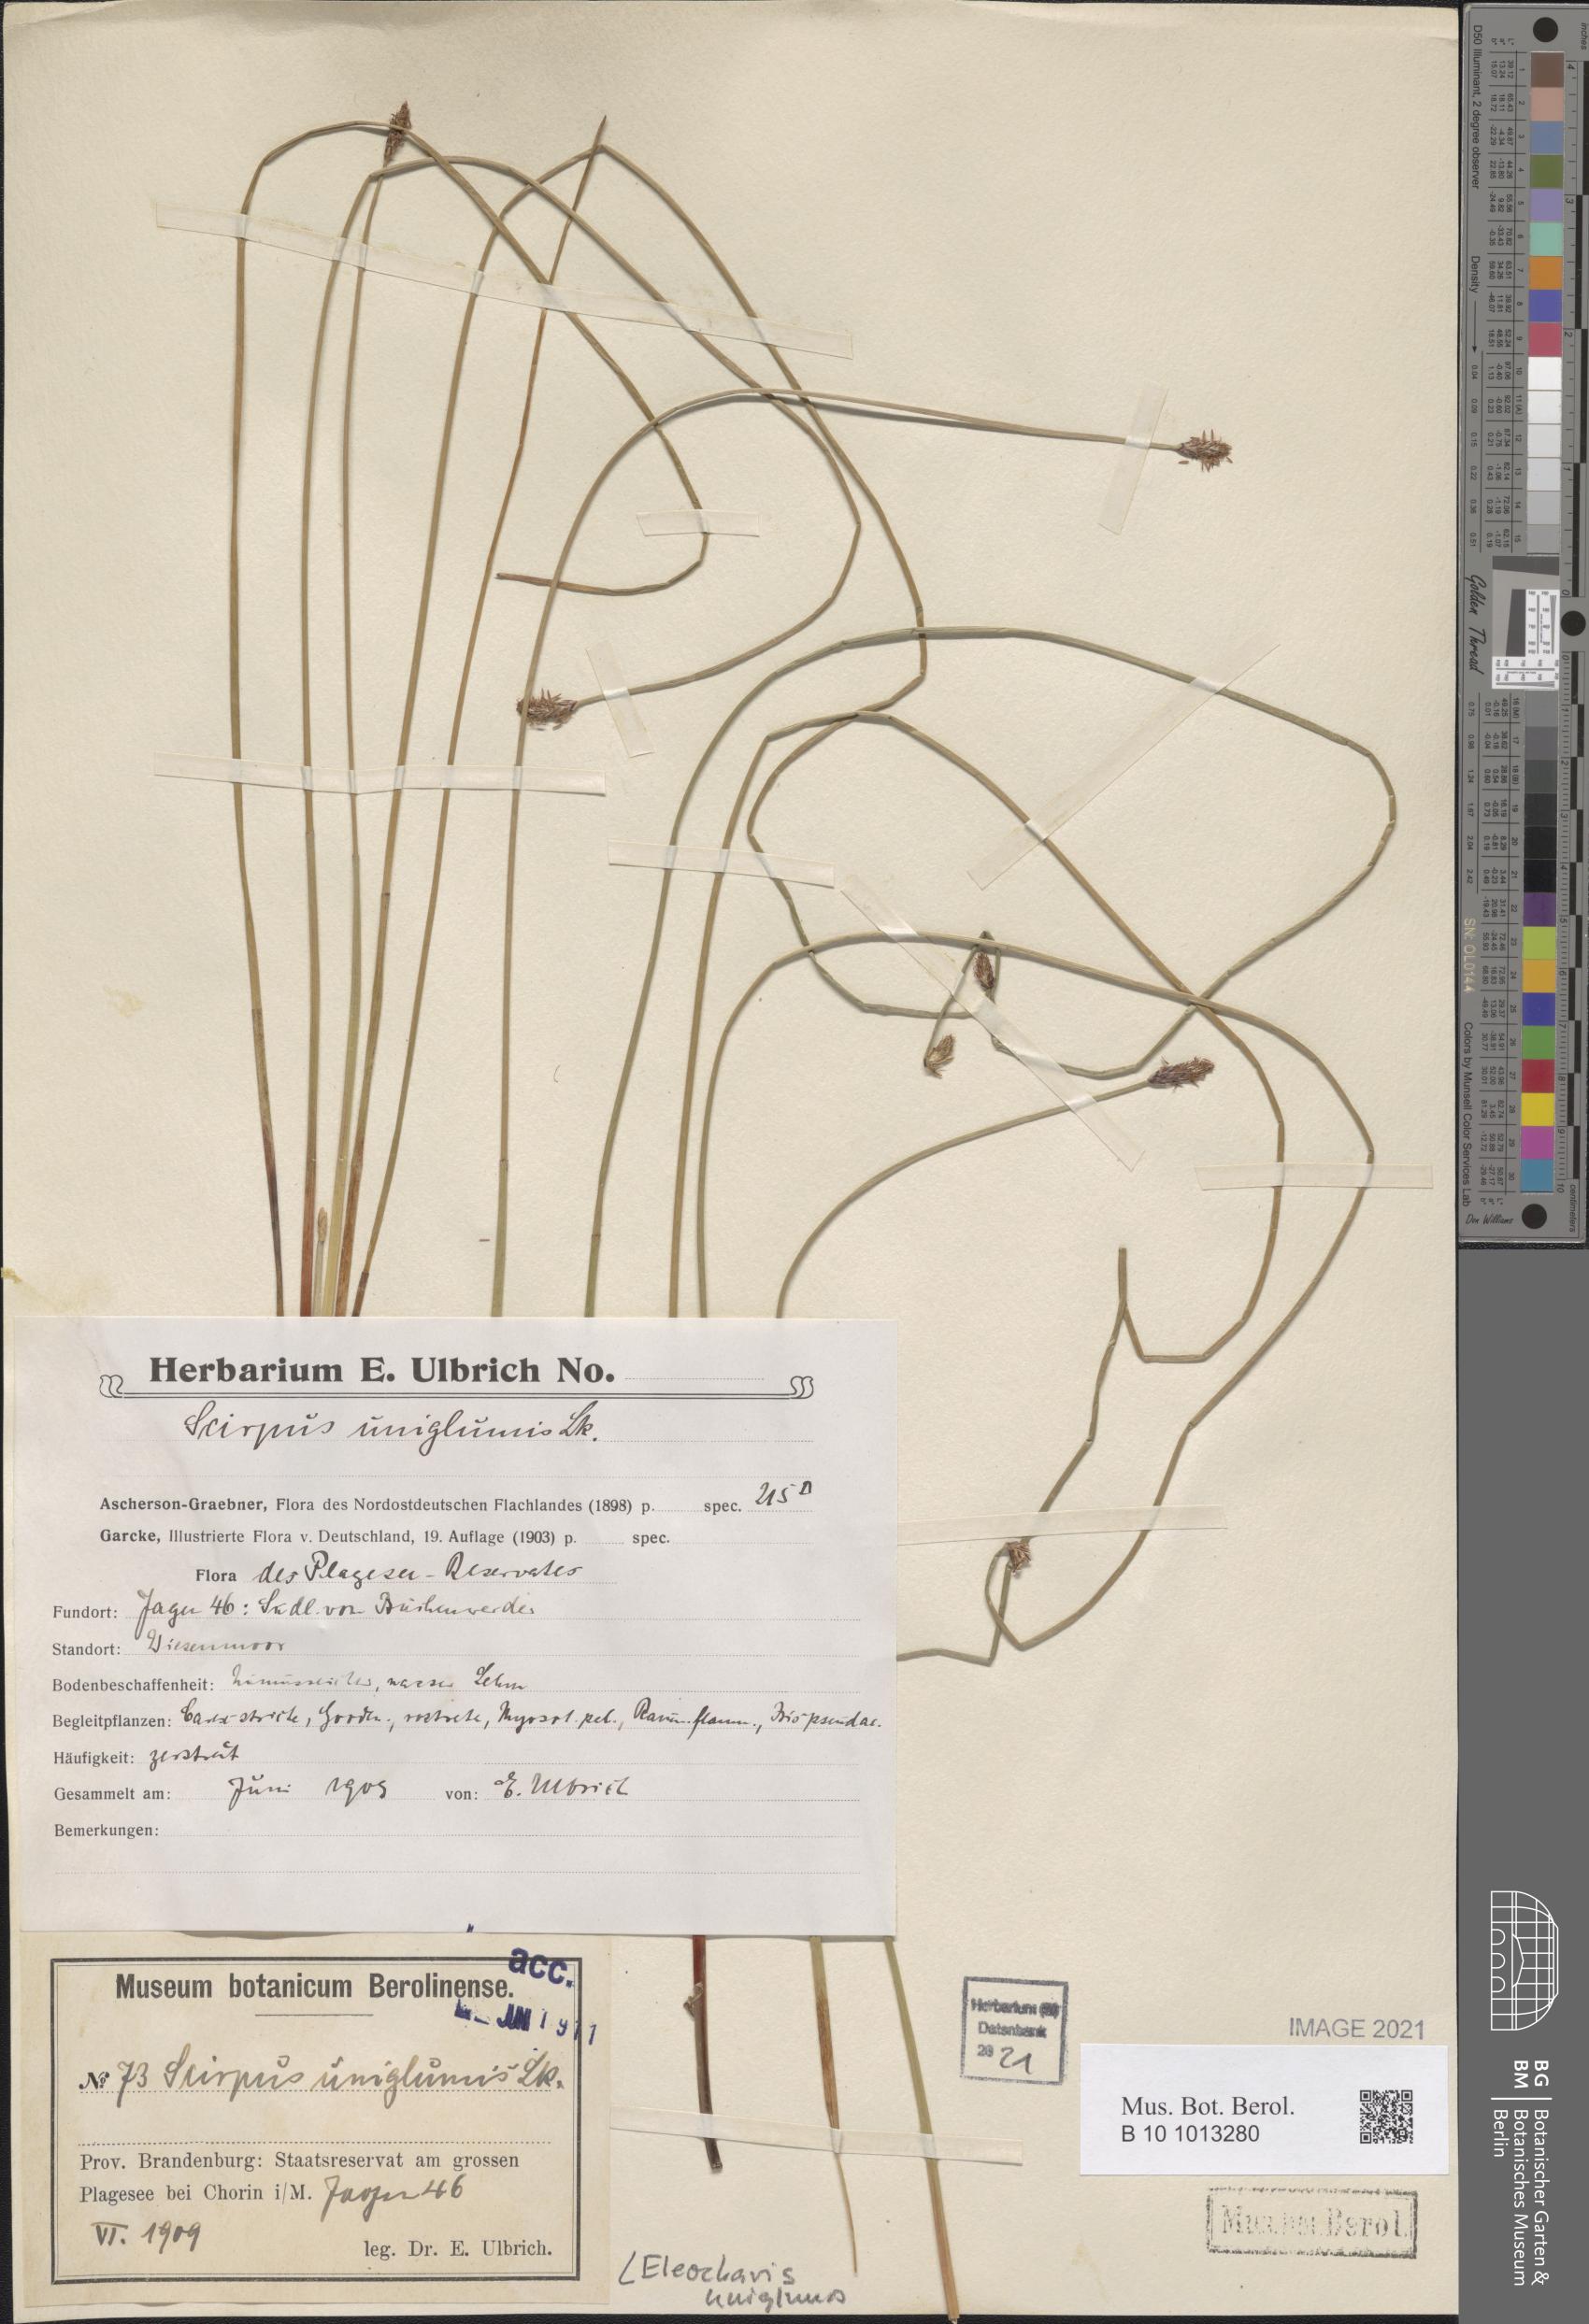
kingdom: Plantae
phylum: Tracheophyta
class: Liliopsida
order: Poales
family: Cyperaceae
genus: Eleocharis
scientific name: Eleocharis uniglumis
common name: Slender spike-rush
